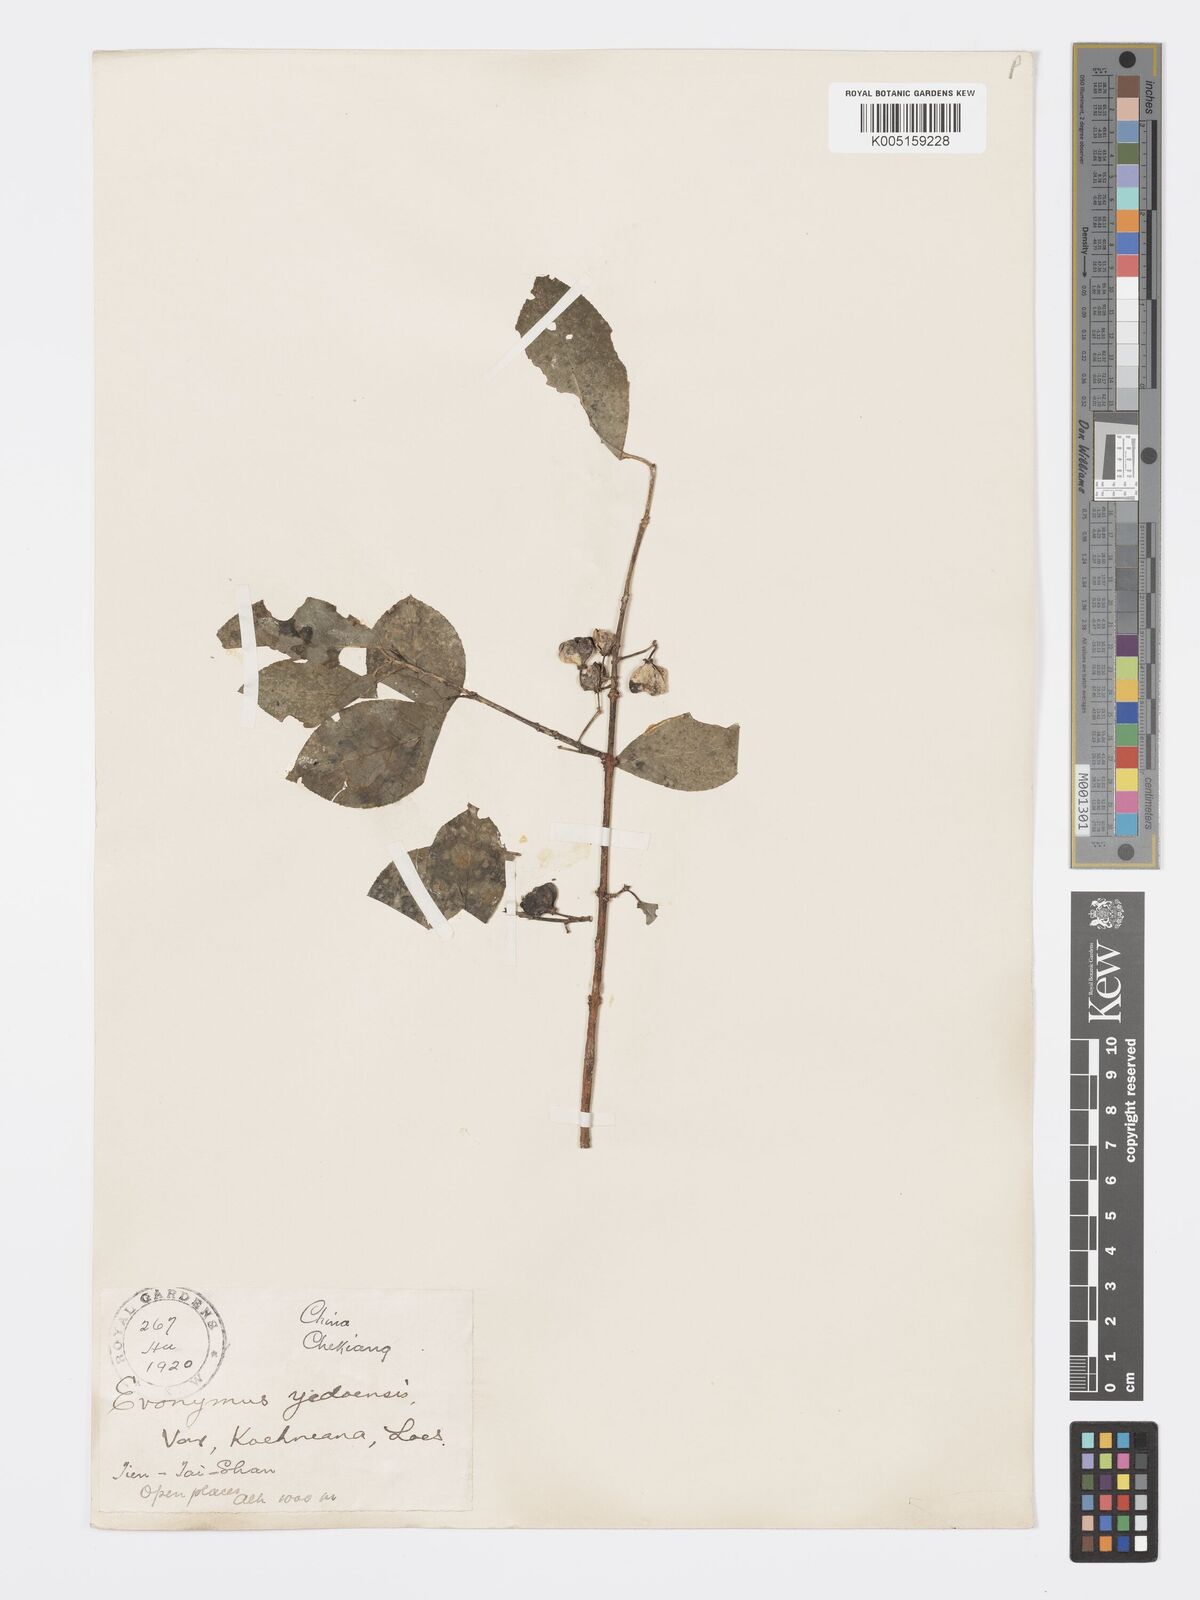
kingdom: Plantae
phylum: Tracheophyta
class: Magnoliopsida
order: Celastrales
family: Celastraceae
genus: Euonymus
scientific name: Euonymus hamiltonianus
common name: Hamilton's spindletree
